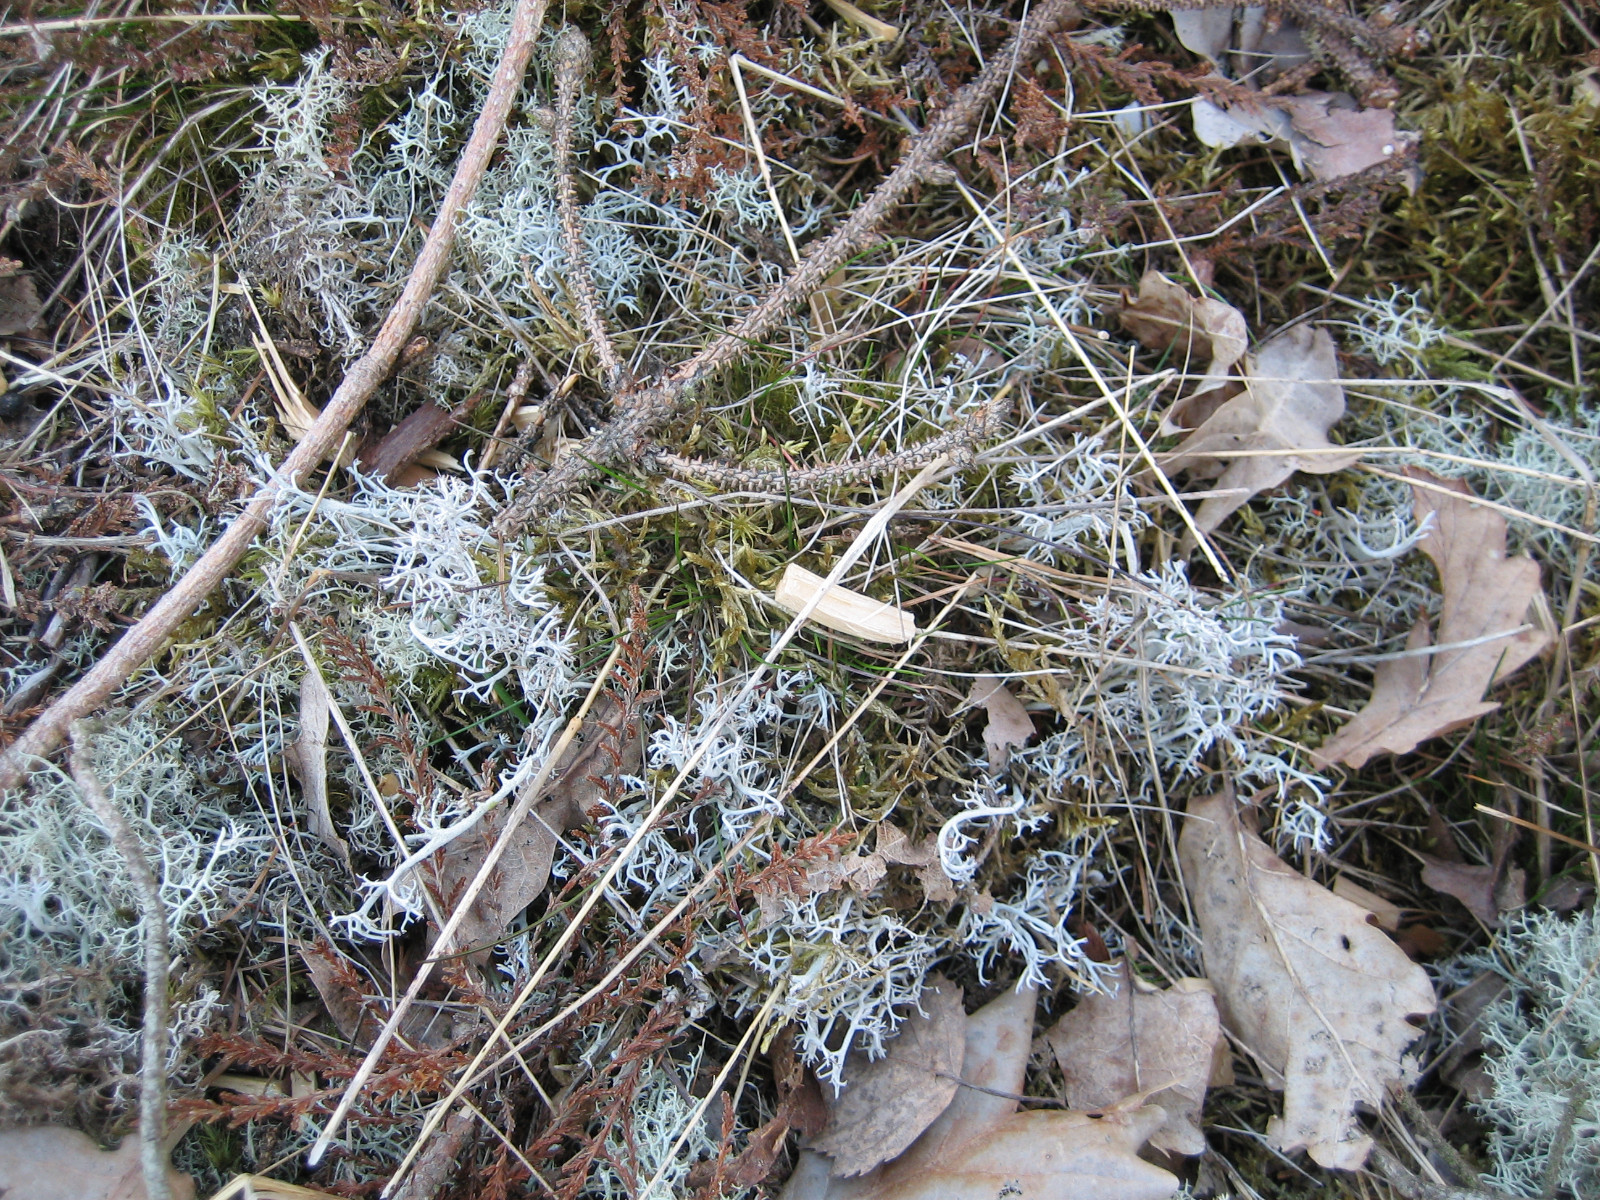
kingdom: Fungi
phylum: Ascomycota
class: Lecanoromycetes
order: Lecanorales
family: Cladoniaceae
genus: Cladonia
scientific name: Cladonia rangiferina
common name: askegrå rensdyrlav
